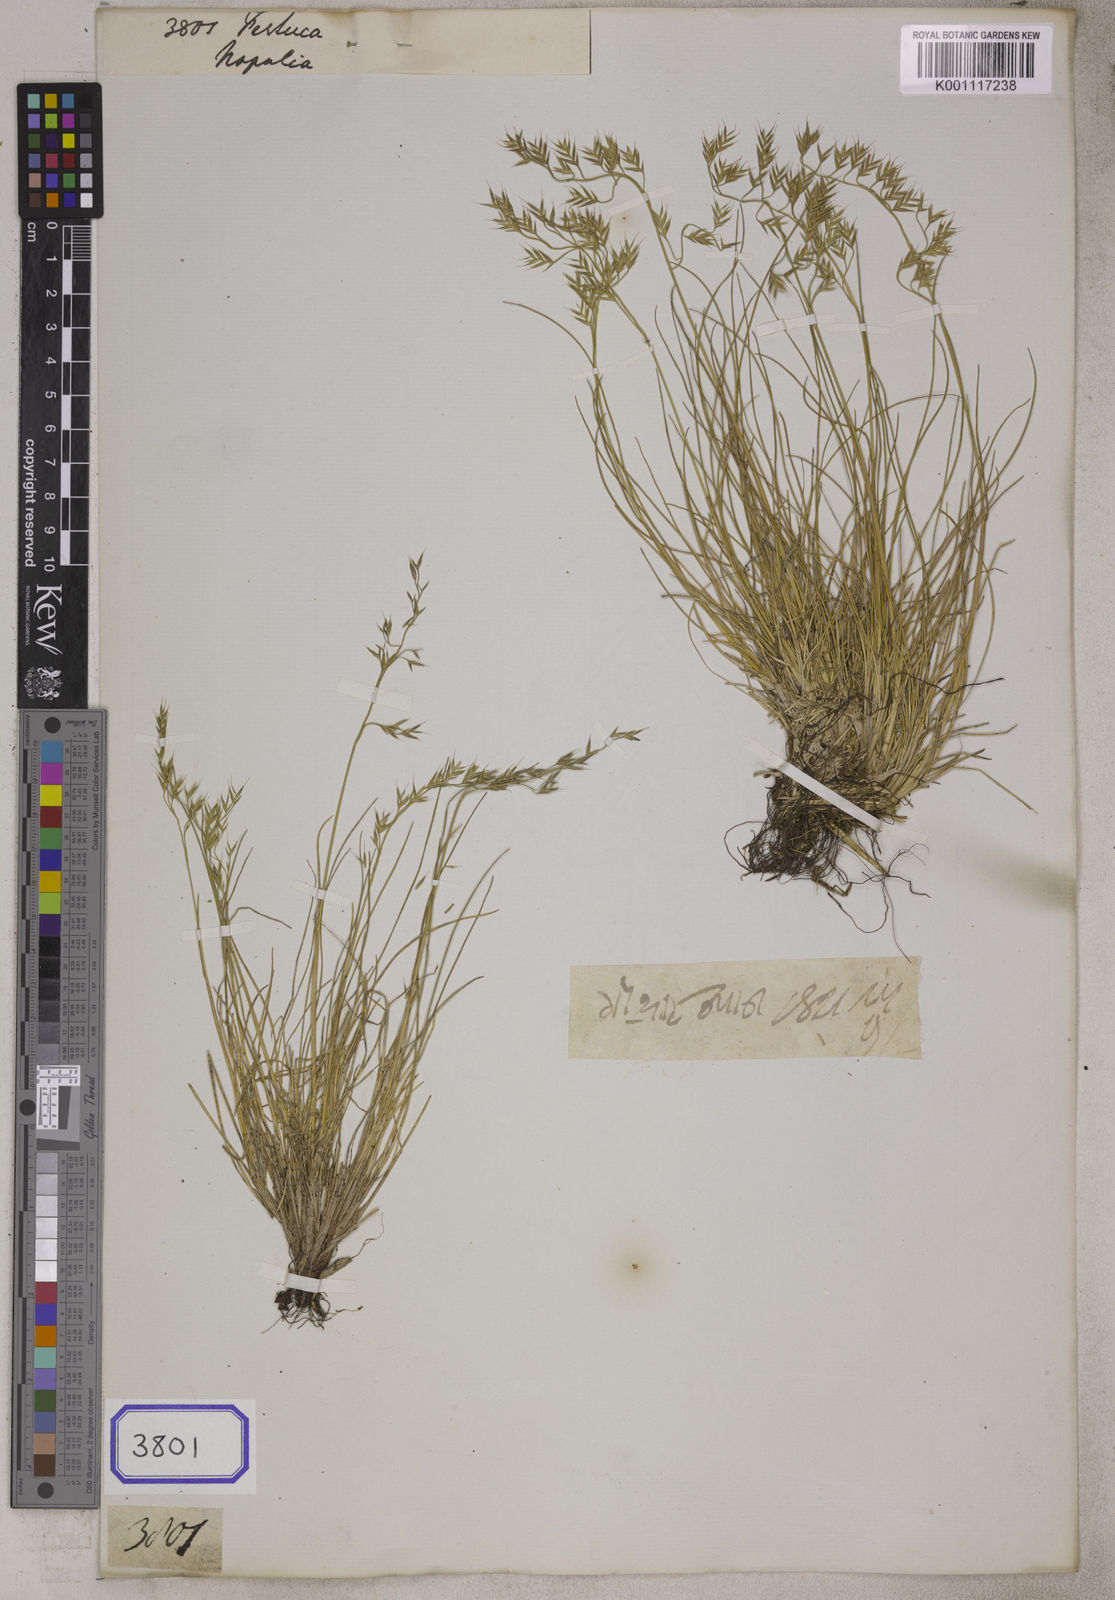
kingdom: Plantae
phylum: Tracheophyta
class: Liliopsida
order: Poales
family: Poaceae
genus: Festuca
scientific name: Festuca
